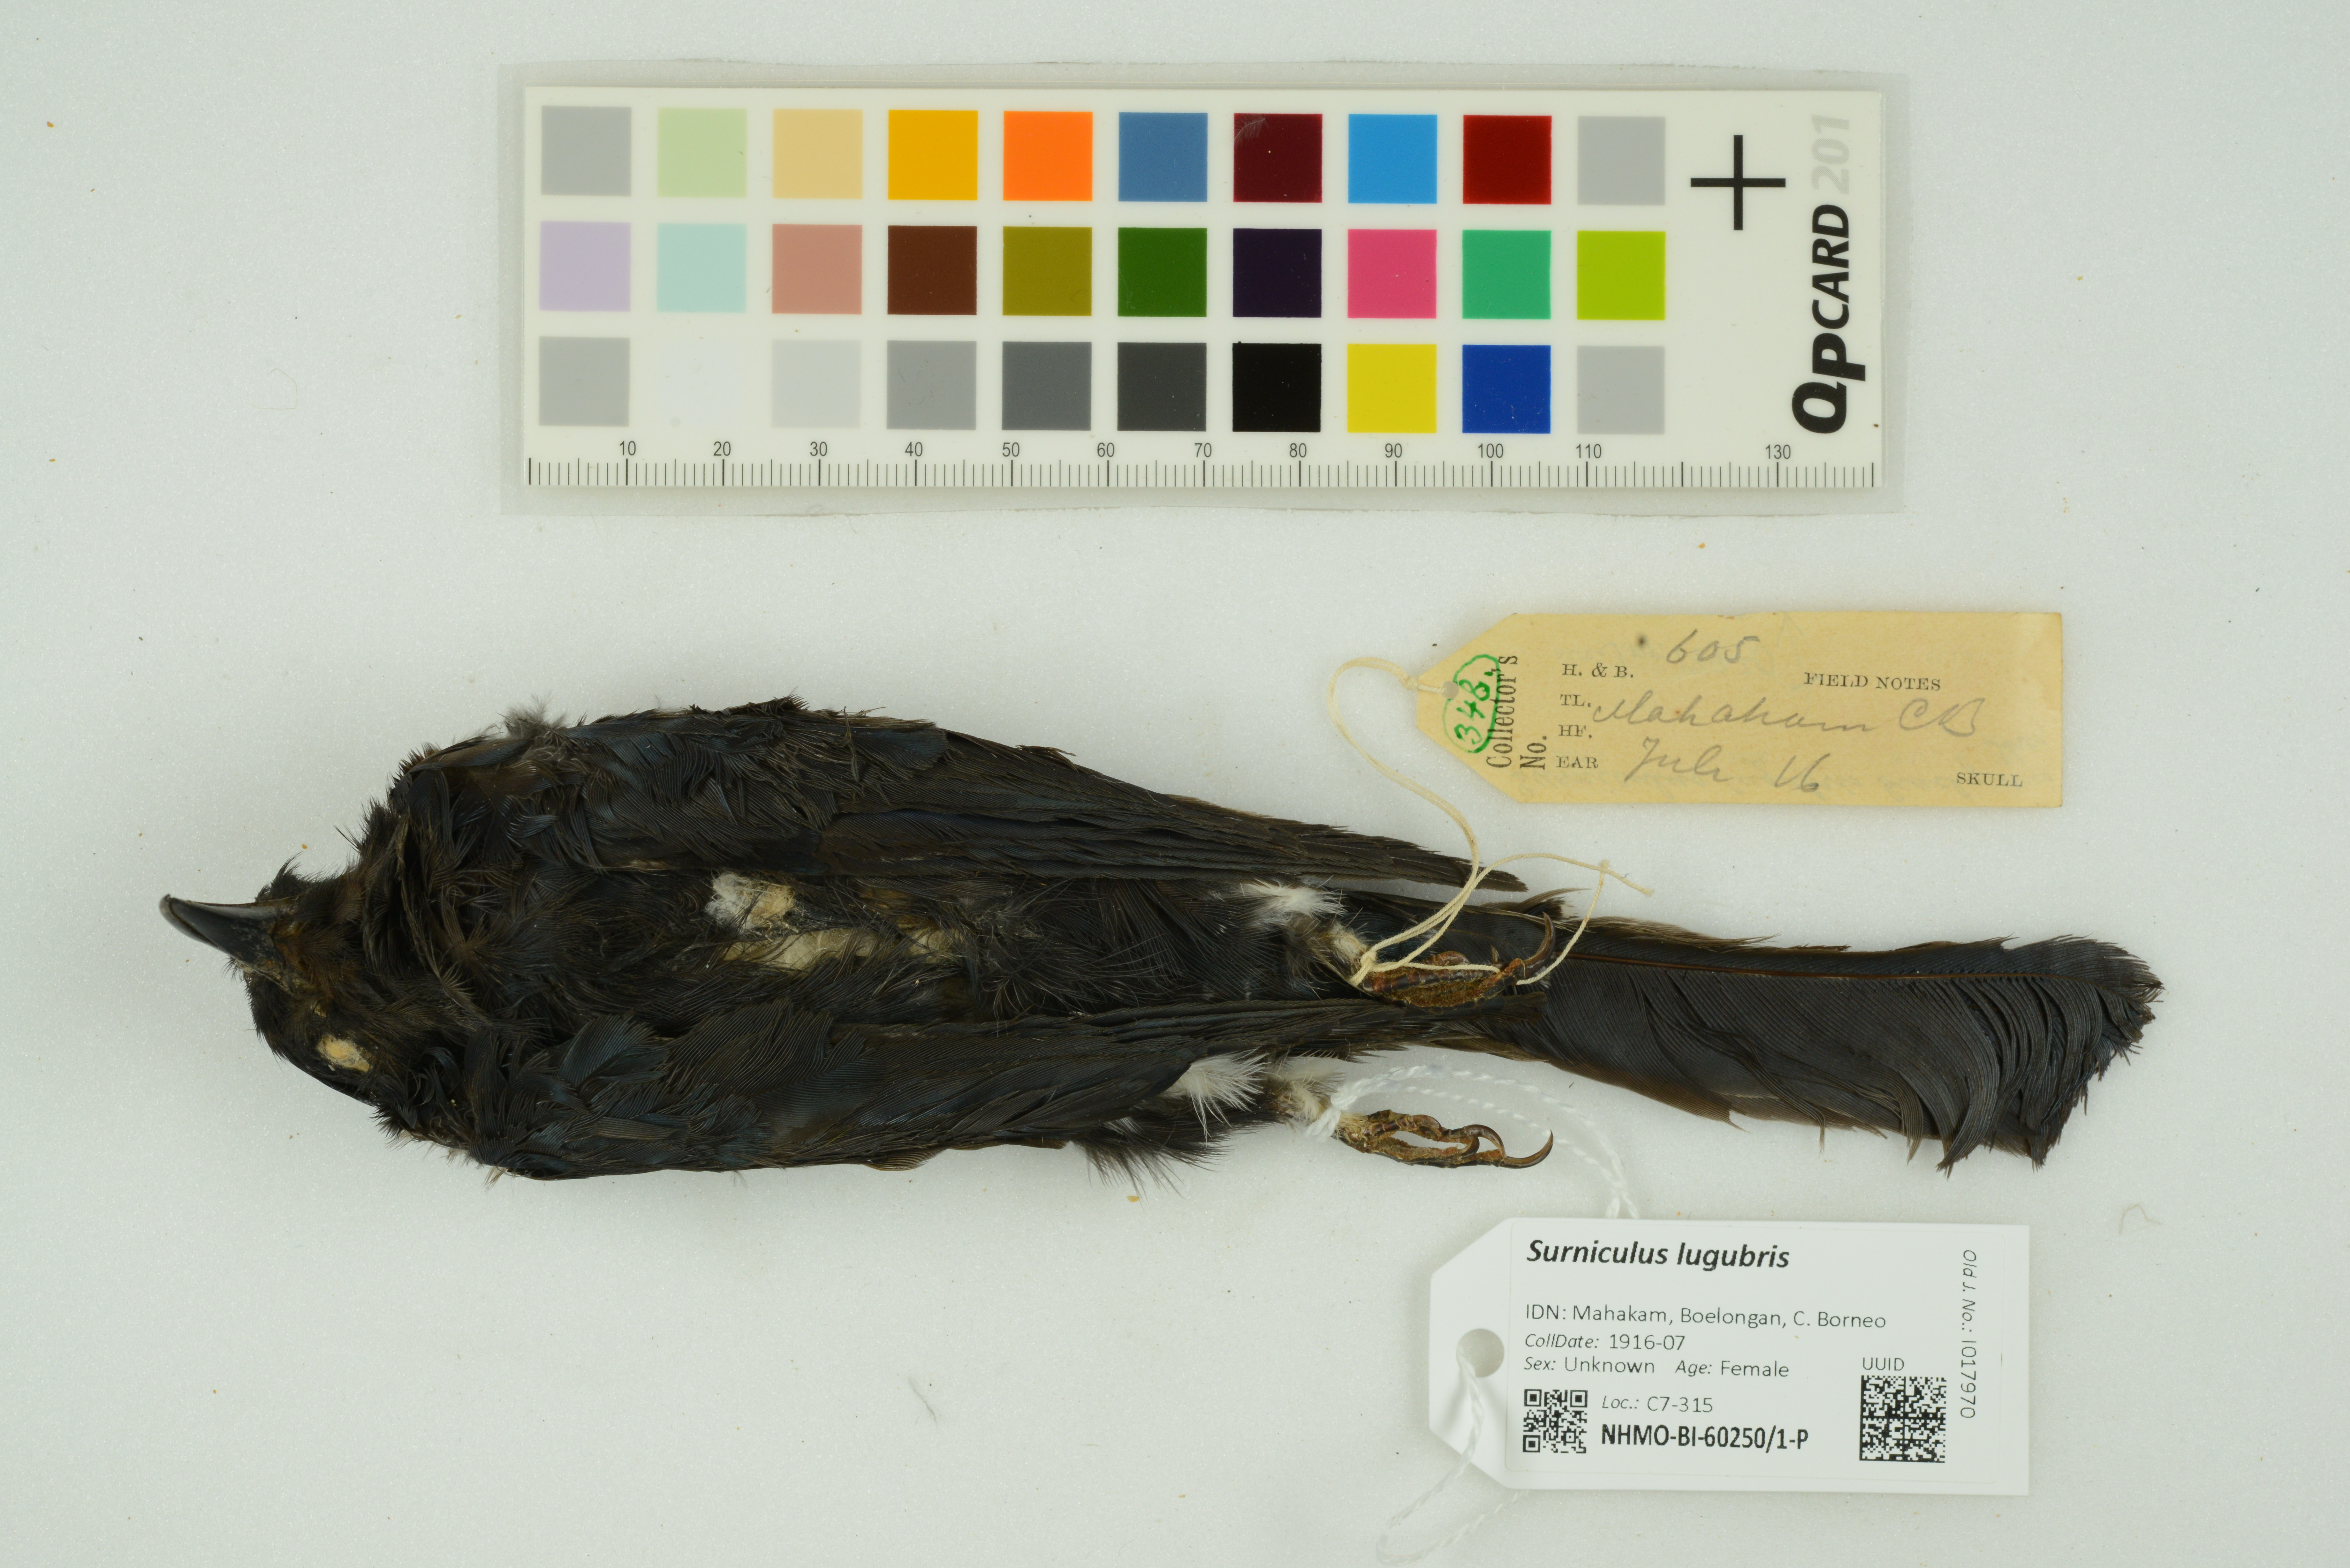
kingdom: Animalia
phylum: Chordata
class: Aves
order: Cuculiformes
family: Cuculidae
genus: Surniculus
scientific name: Surniculus lugubris
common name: Square-tailed drongo-cuckoo
